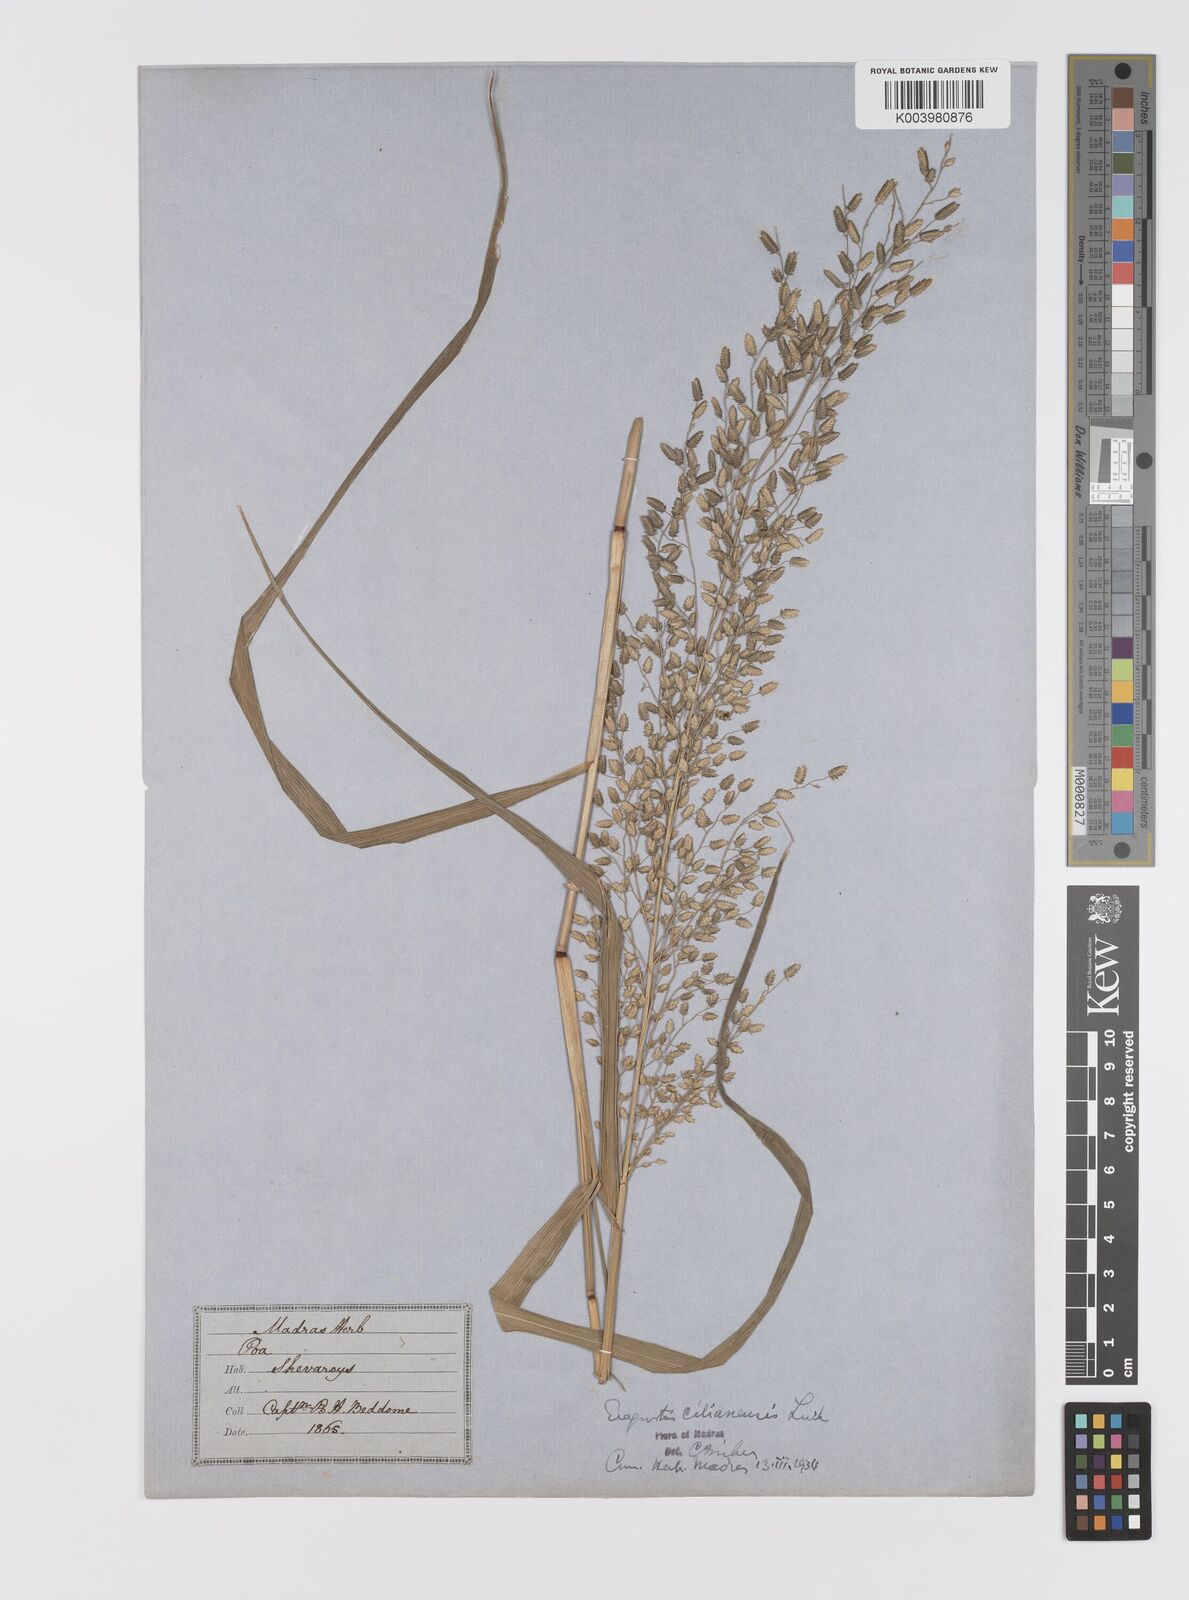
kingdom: Plantae
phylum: Tracheophyta
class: Liliopsida
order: Poales
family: Poaceae
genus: Eragrostis
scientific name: Eragrostis cilianensis
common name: Stinkgrass
